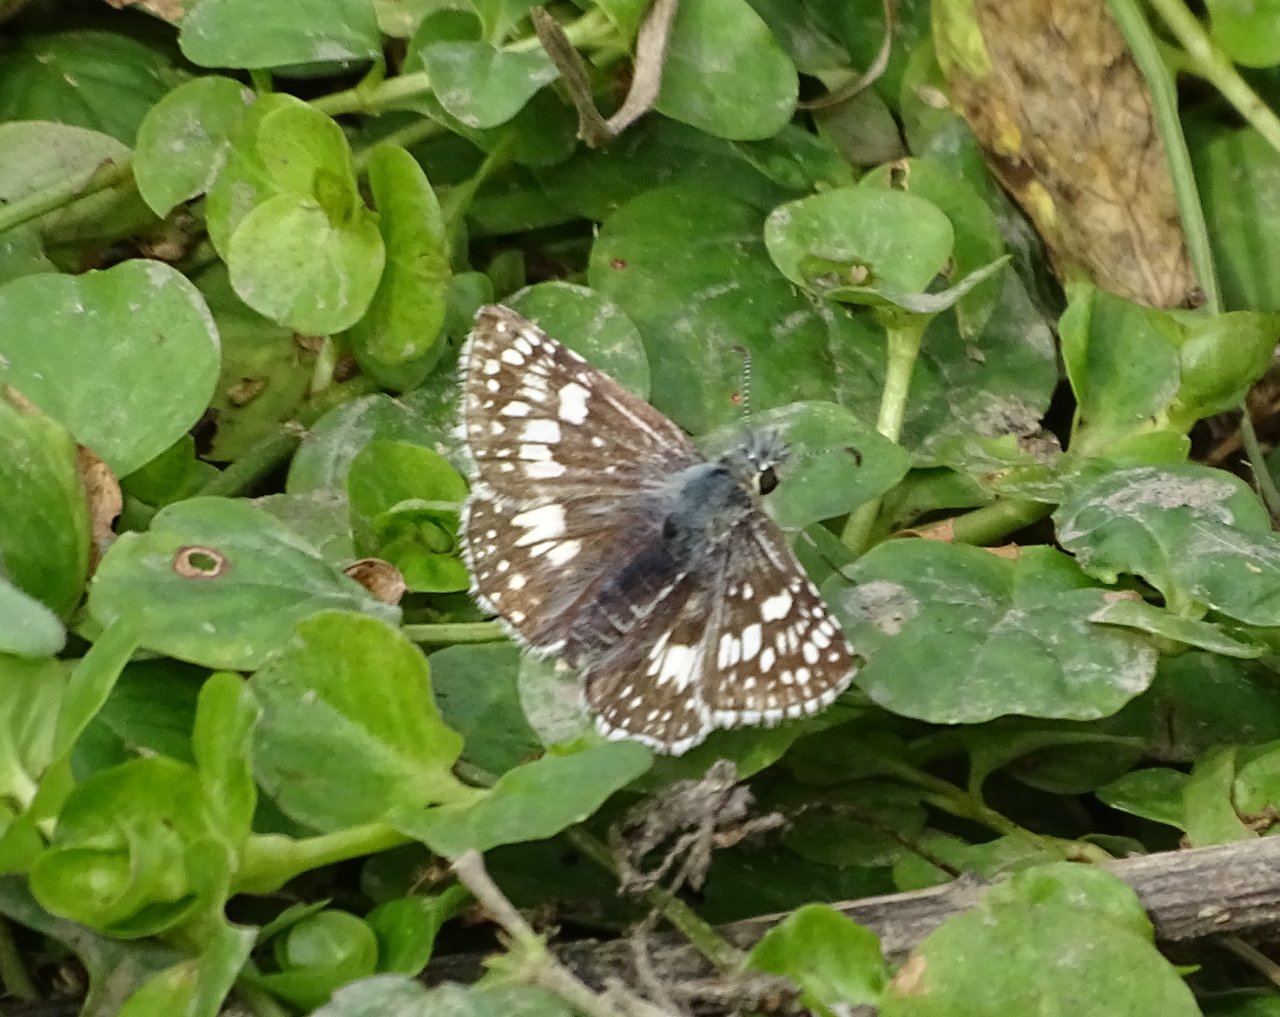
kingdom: Animalia
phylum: Arthropoda
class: Insecta
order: Lepidoptera
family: Hesperiidae
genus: Pyrgus
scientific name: Pyrgus communis
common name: Common Checkered-Skipper
